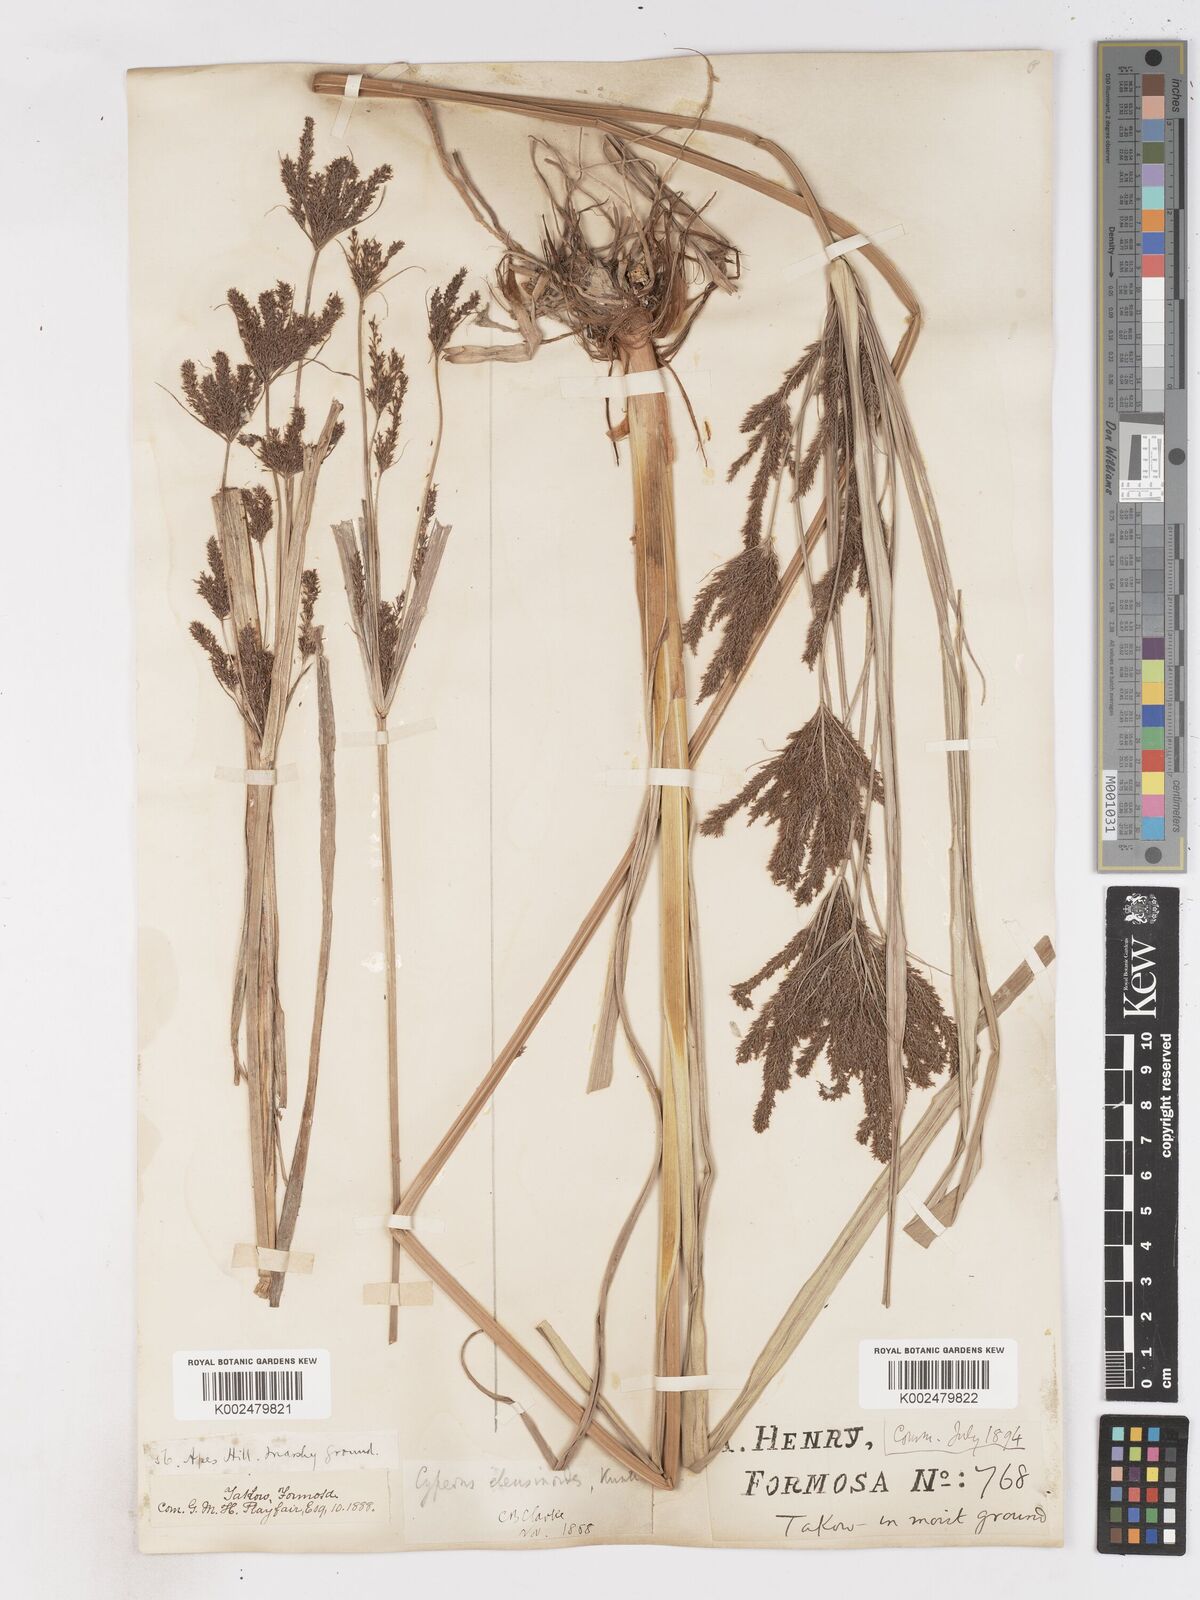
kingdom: Plantae
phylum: Tracheophyta
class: Liliopsida
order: Poales
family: Cyperaceae
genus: Cyperus
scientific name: Cyperus nutans
